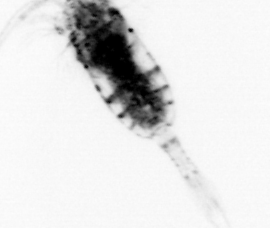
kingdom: Animalia
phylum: Arthropoda
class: Copepoda
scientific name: Copepoda
